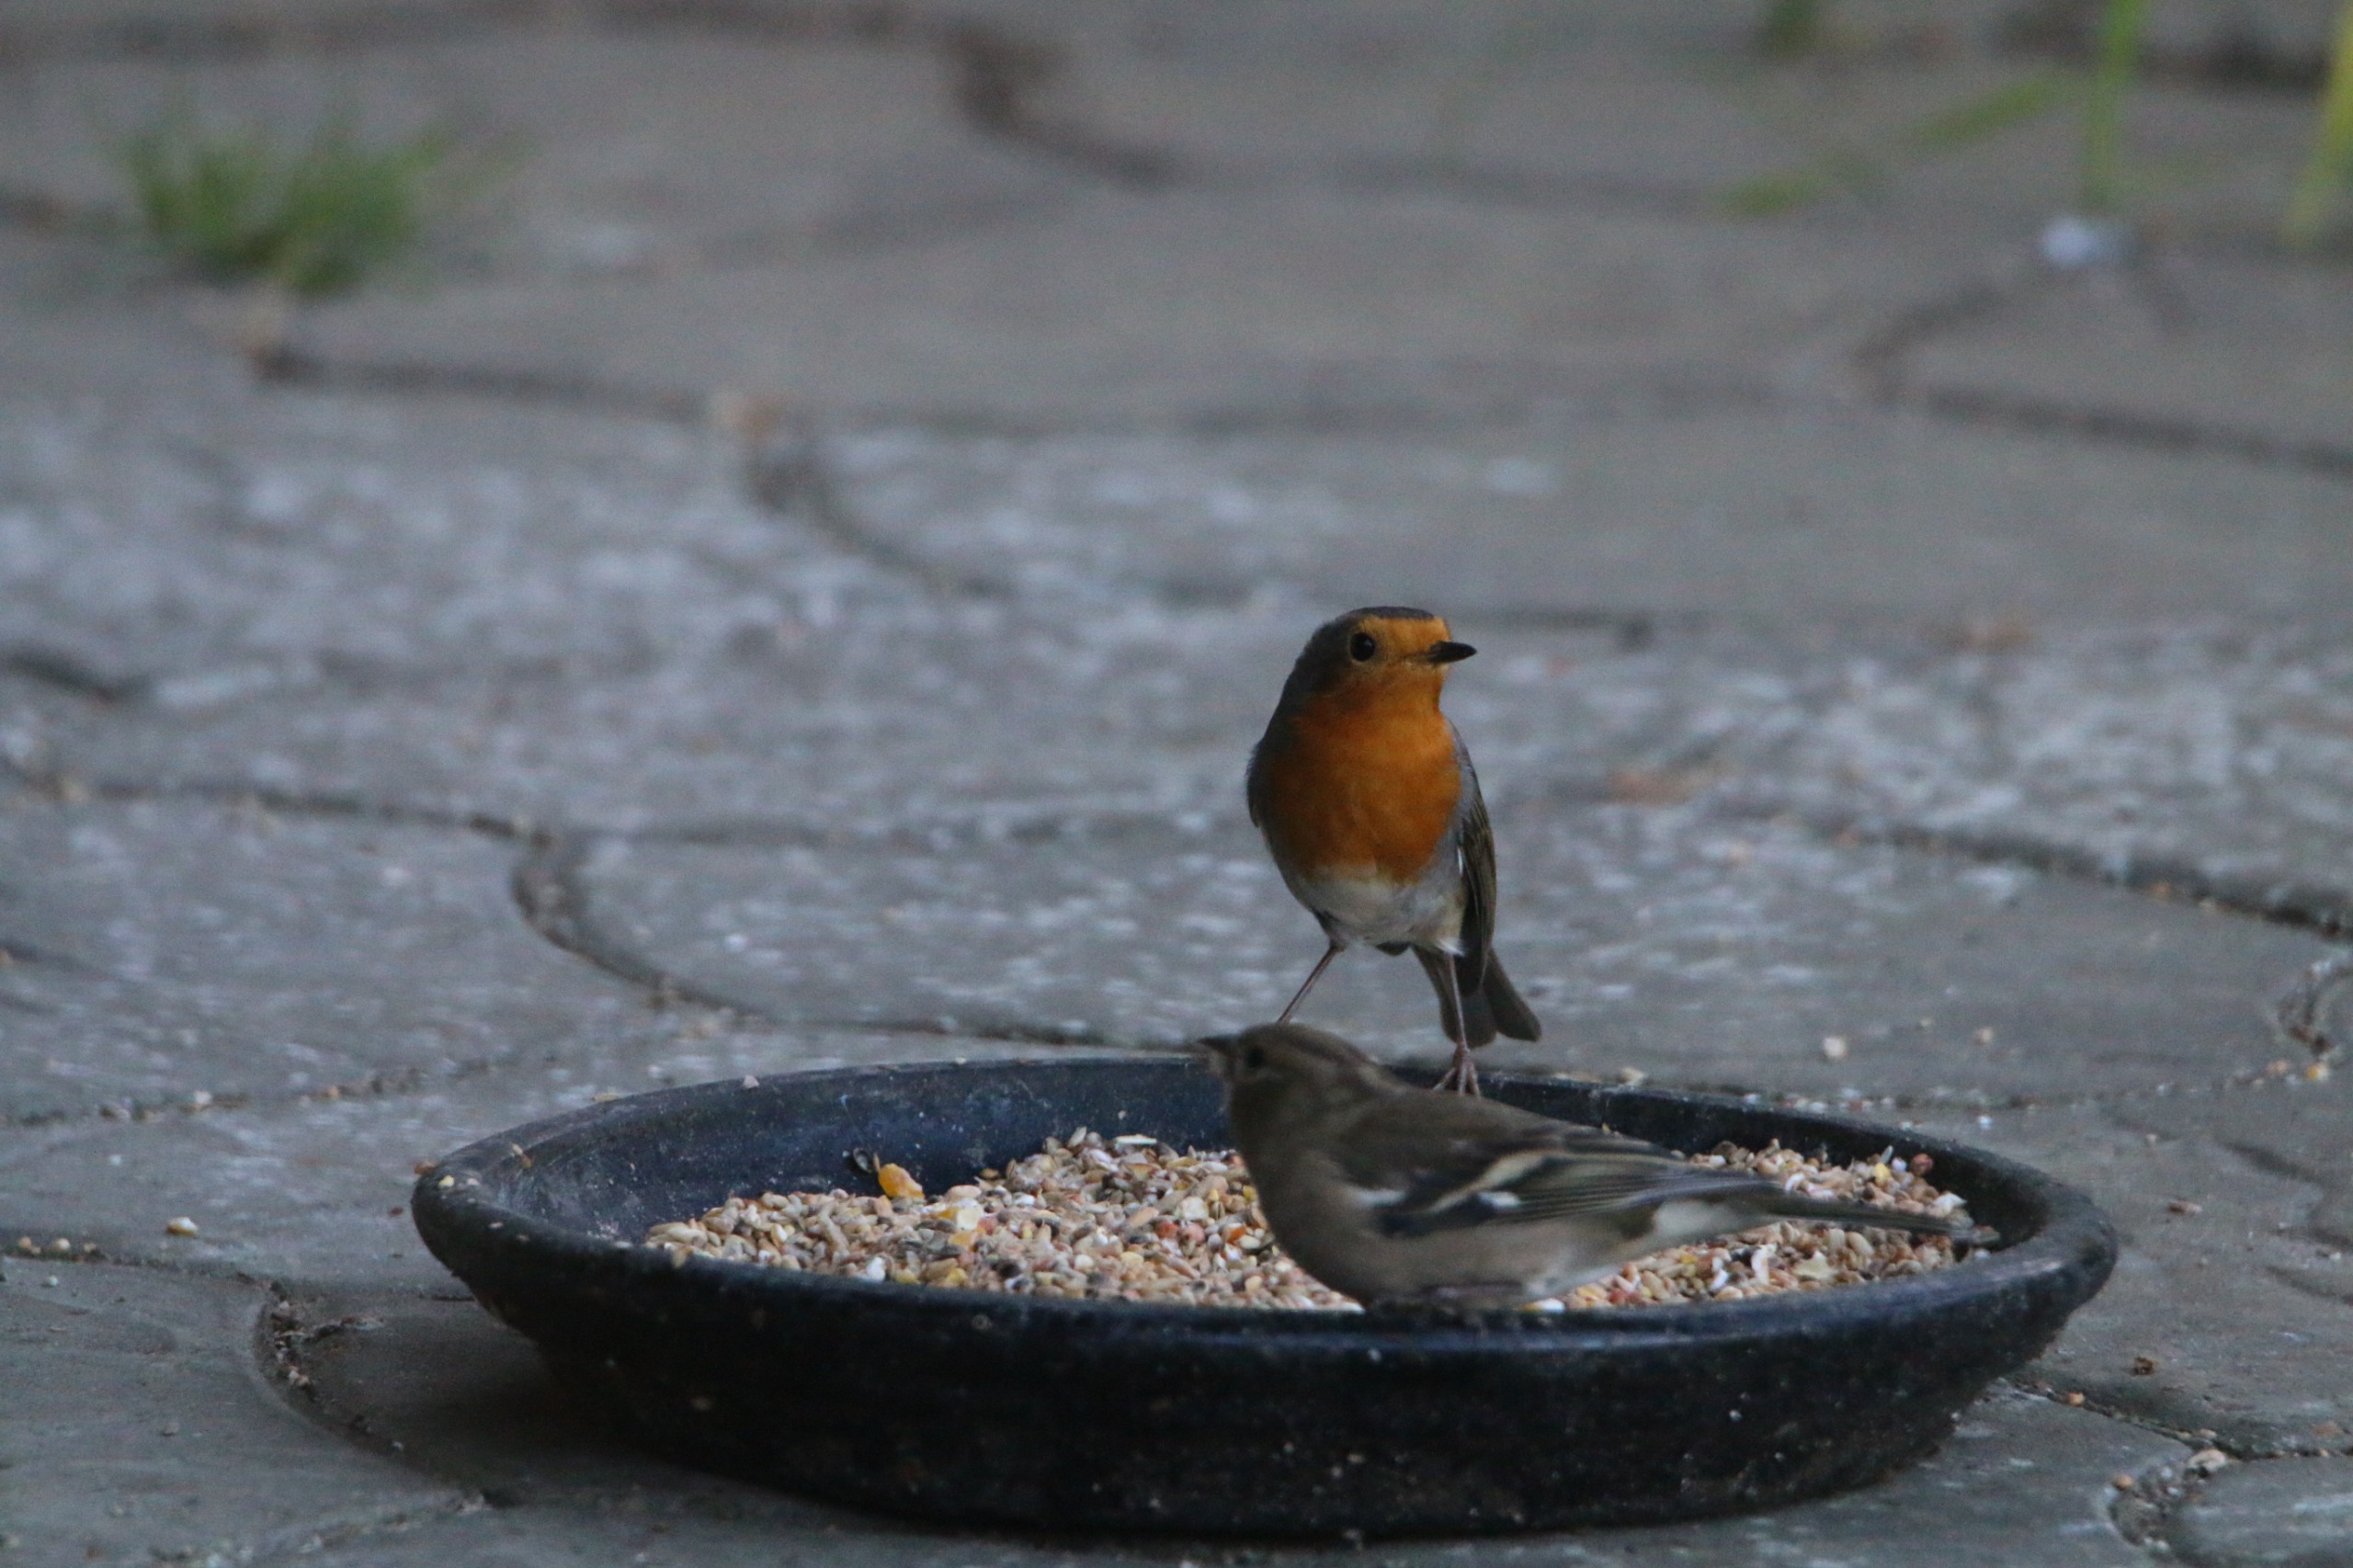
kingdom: Animalia
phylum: Chordata
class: Aves
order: Passeriformes
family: Muscicapidae
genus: Erithacus
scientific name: Erithacus rubecula
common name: Rødhals/rødkælk
